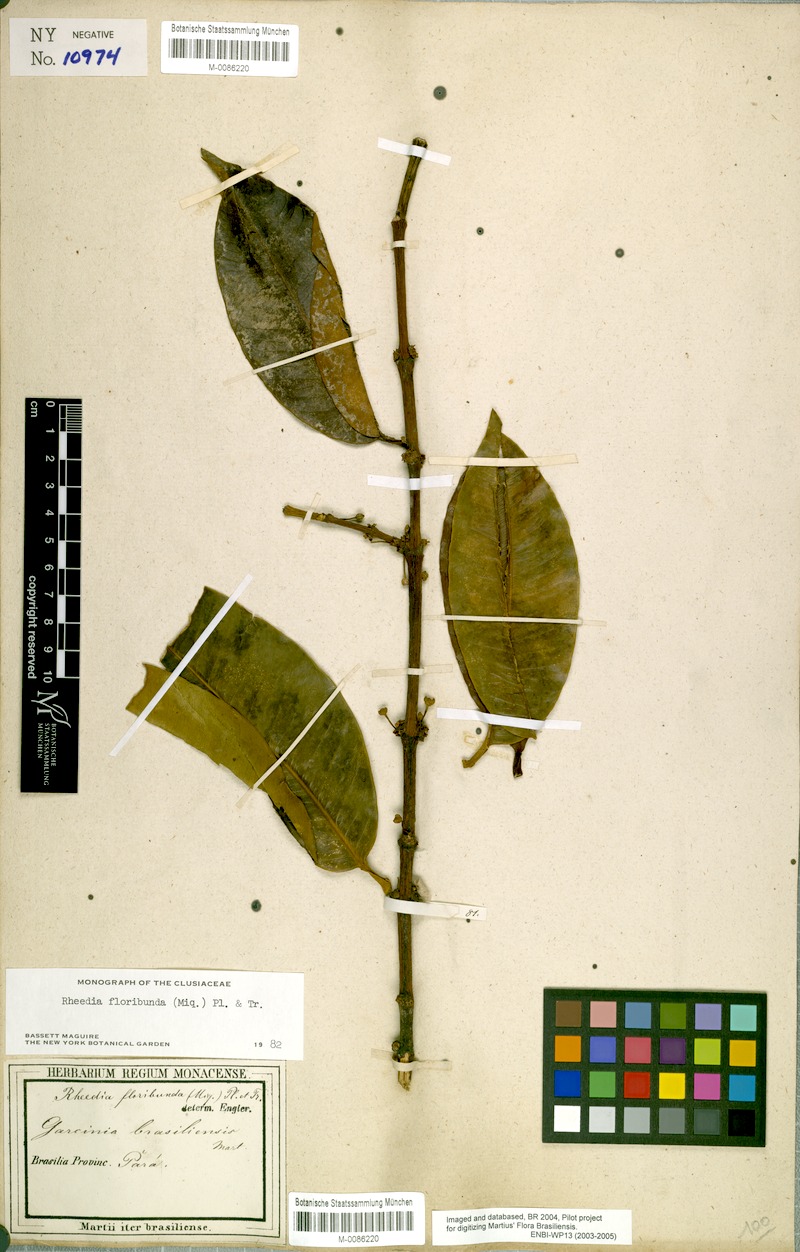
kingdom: Plantae
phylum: Tracheophyta
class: Magnoliopsida
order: Malpighiales
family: Clusiaceae
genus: Garcinia
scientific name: Garcinia madruno
